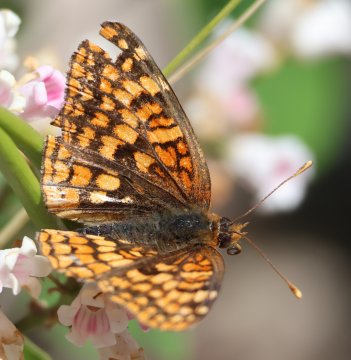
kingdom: Animalia
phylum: Arthropoda
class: Insecta
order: Lepidoptera
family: Nymphalidae
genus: Speyeria
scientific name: Speyeria zerene
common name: Zerene Fritillary
